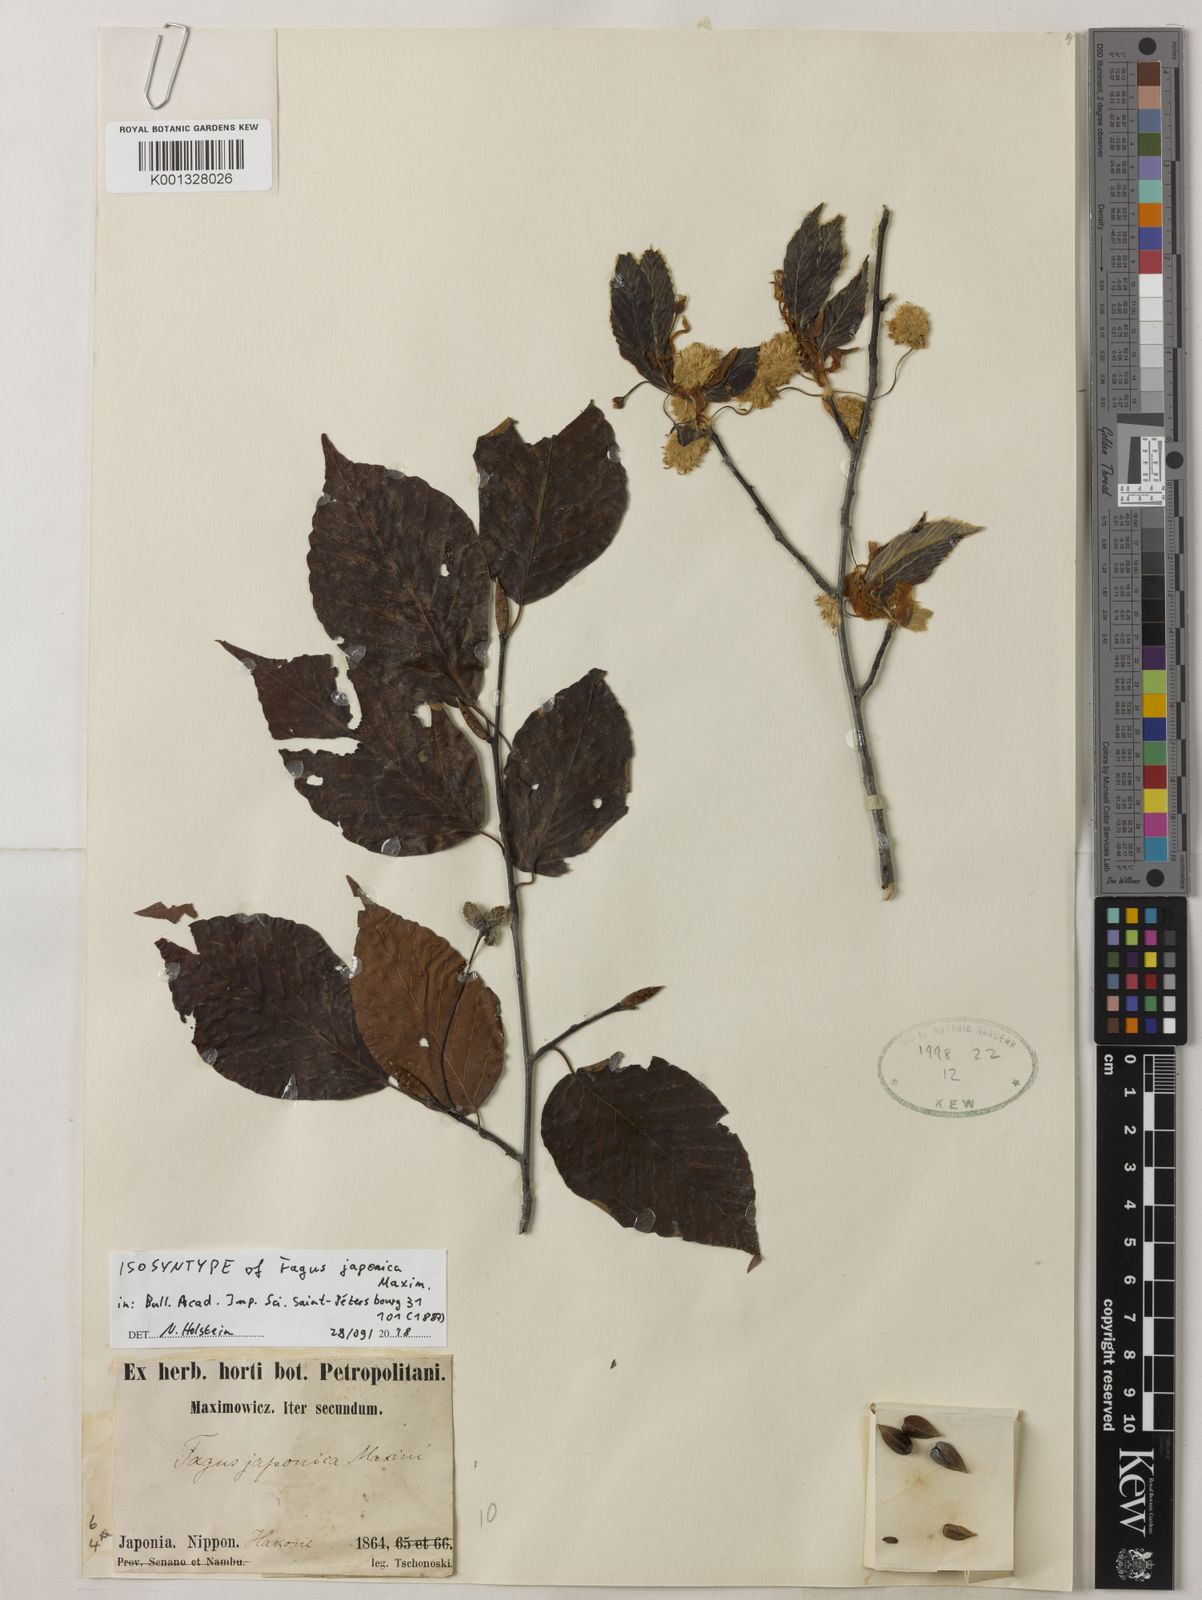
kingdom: Plantae
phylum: Tracheophyta
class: Magnoliopsida
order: Fagales
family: Fagaceae
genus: Fagus
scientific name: Fagus japonica
